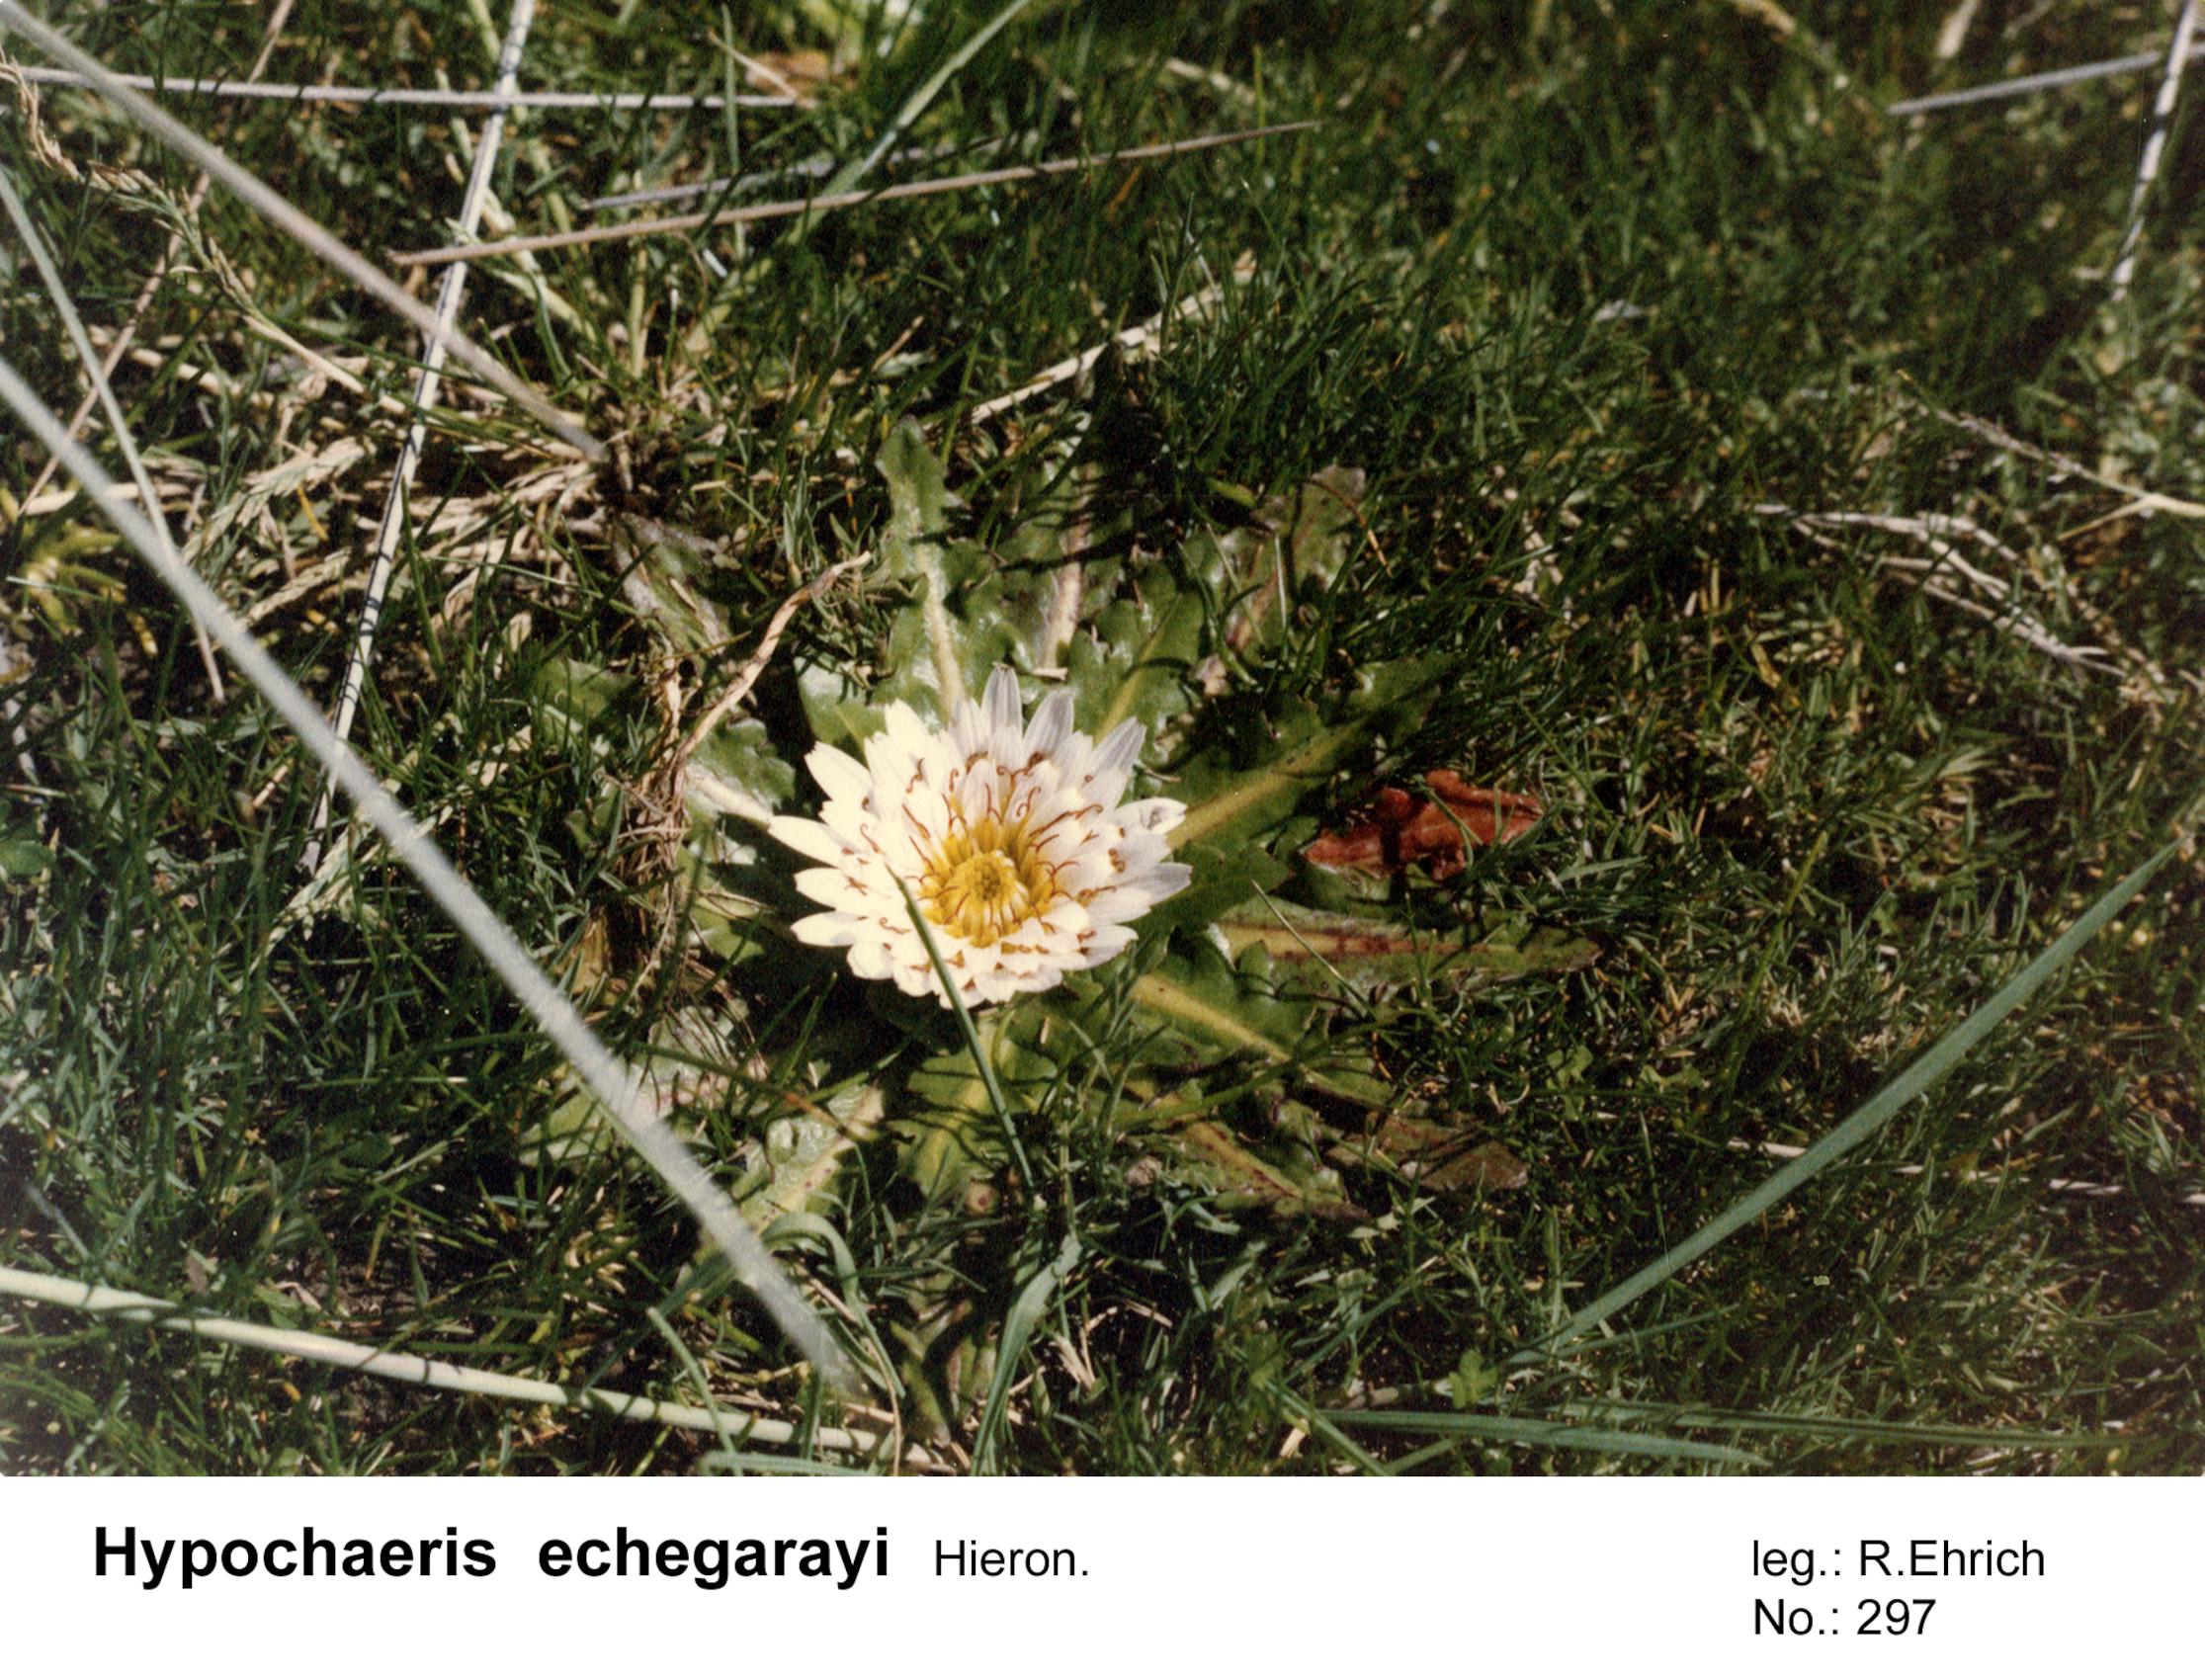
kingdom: Plantae
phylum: Tracheophyta
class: Magnoliopsida
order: Asterales
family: Asteraceae
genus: Hypochaeris
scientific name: Hypochaeris echegarayi
